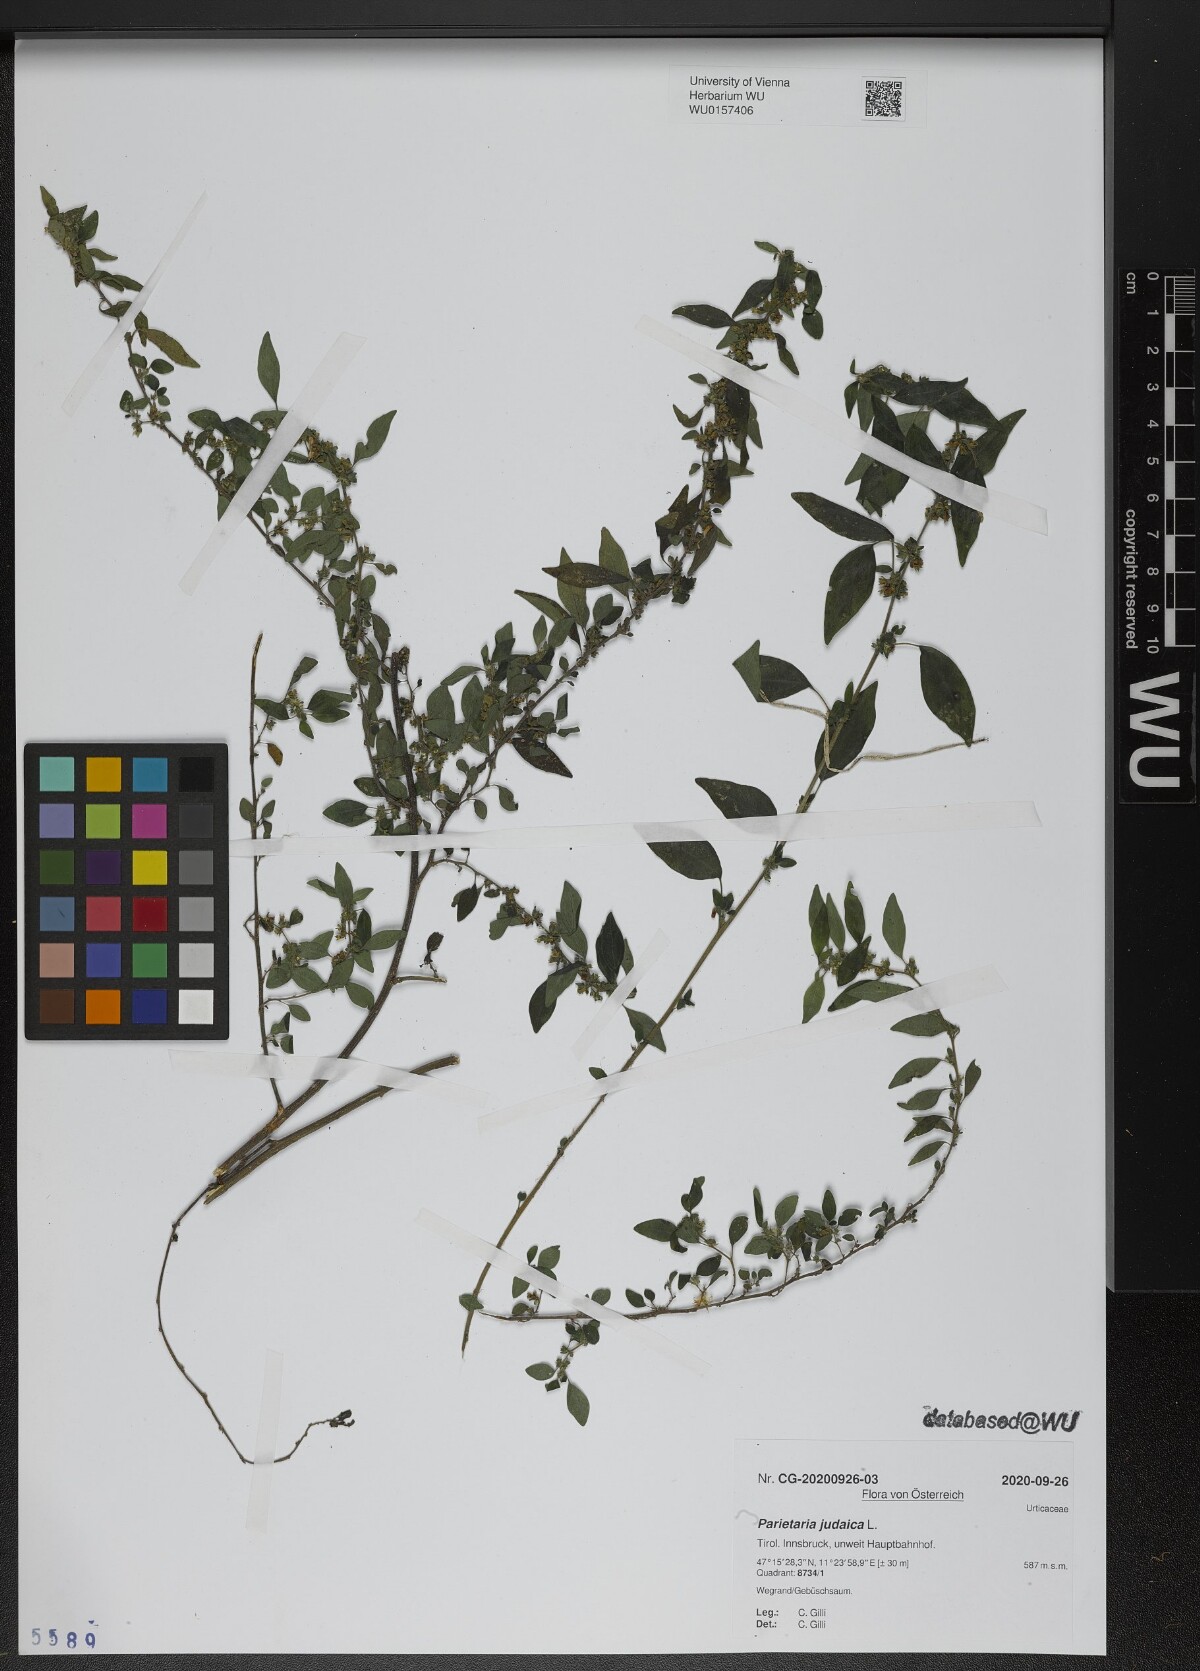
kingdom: Plantae
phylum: Tracheophyta
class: Magnoliopsida
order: Rosales
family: Urticaceae
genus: Parietaria
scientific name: Parietaria judaica
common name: Pellitory-of-the-wall
